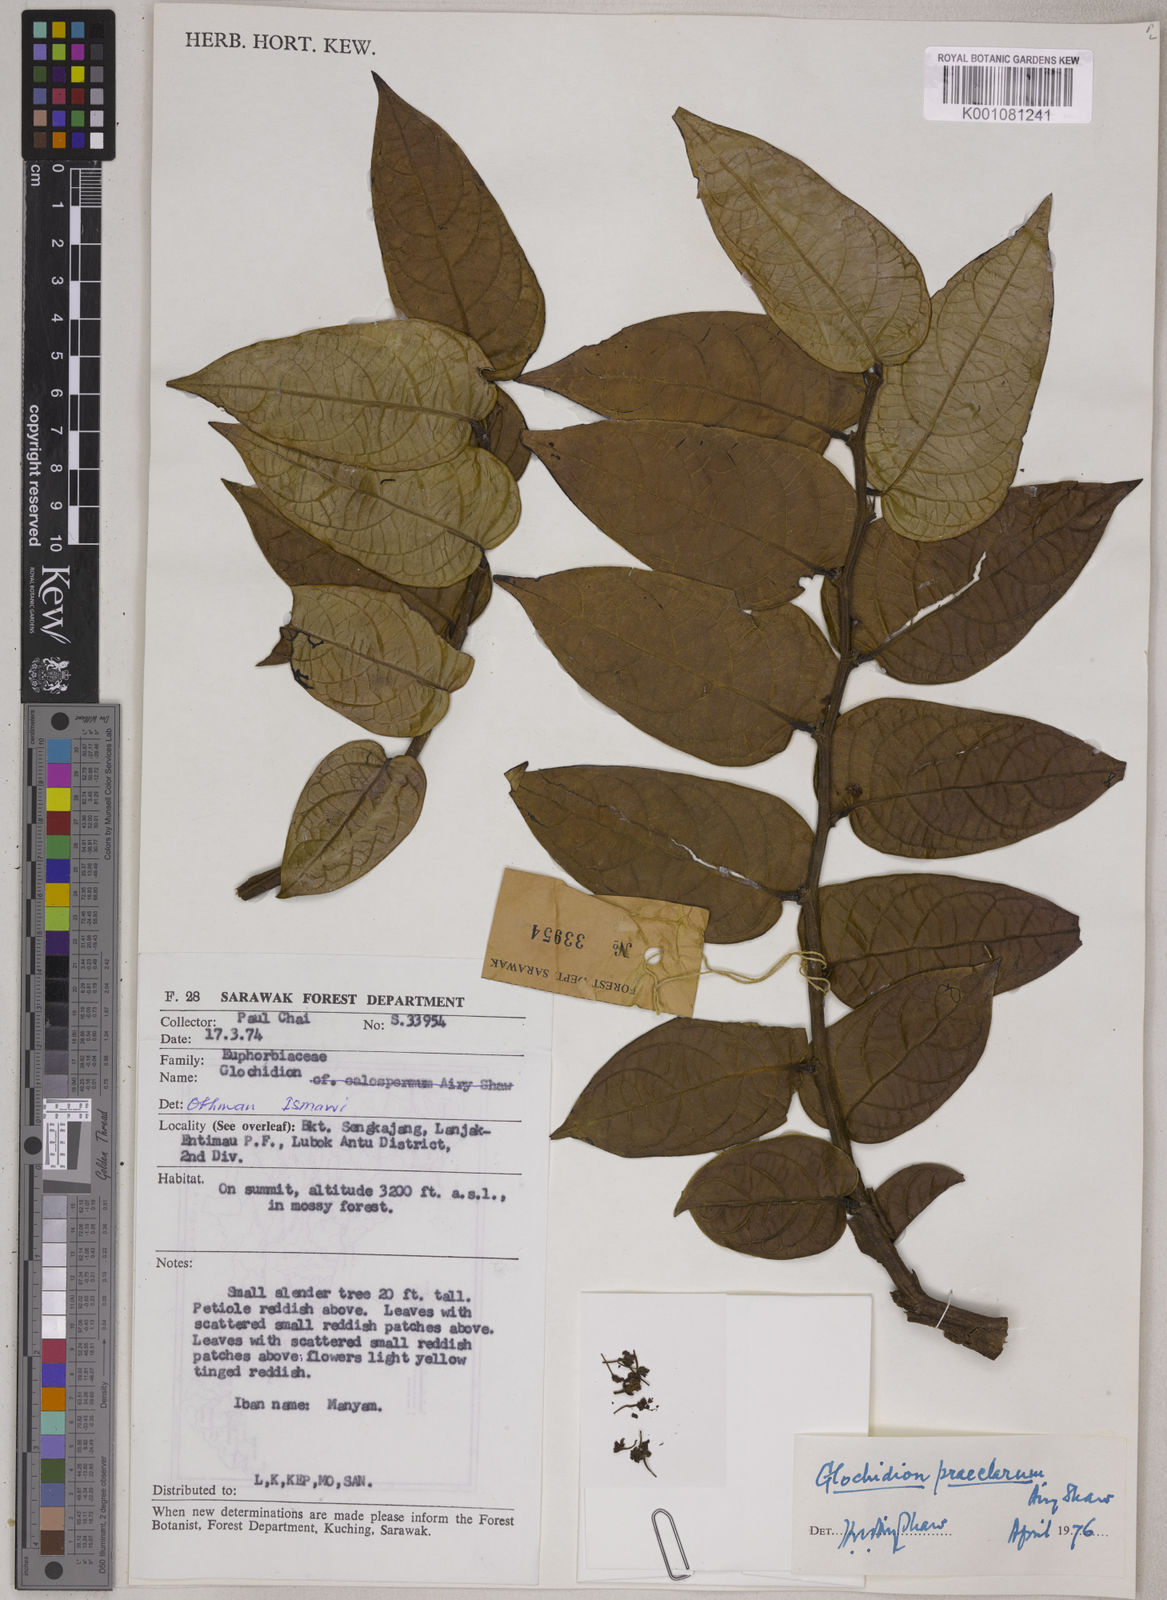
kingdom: Plantae
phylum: Tracheophyta
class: Magnoliopsida
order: Malpighiales
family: Phyllanthaceae
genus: Glochidion
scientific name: Glochidion praeclarum
